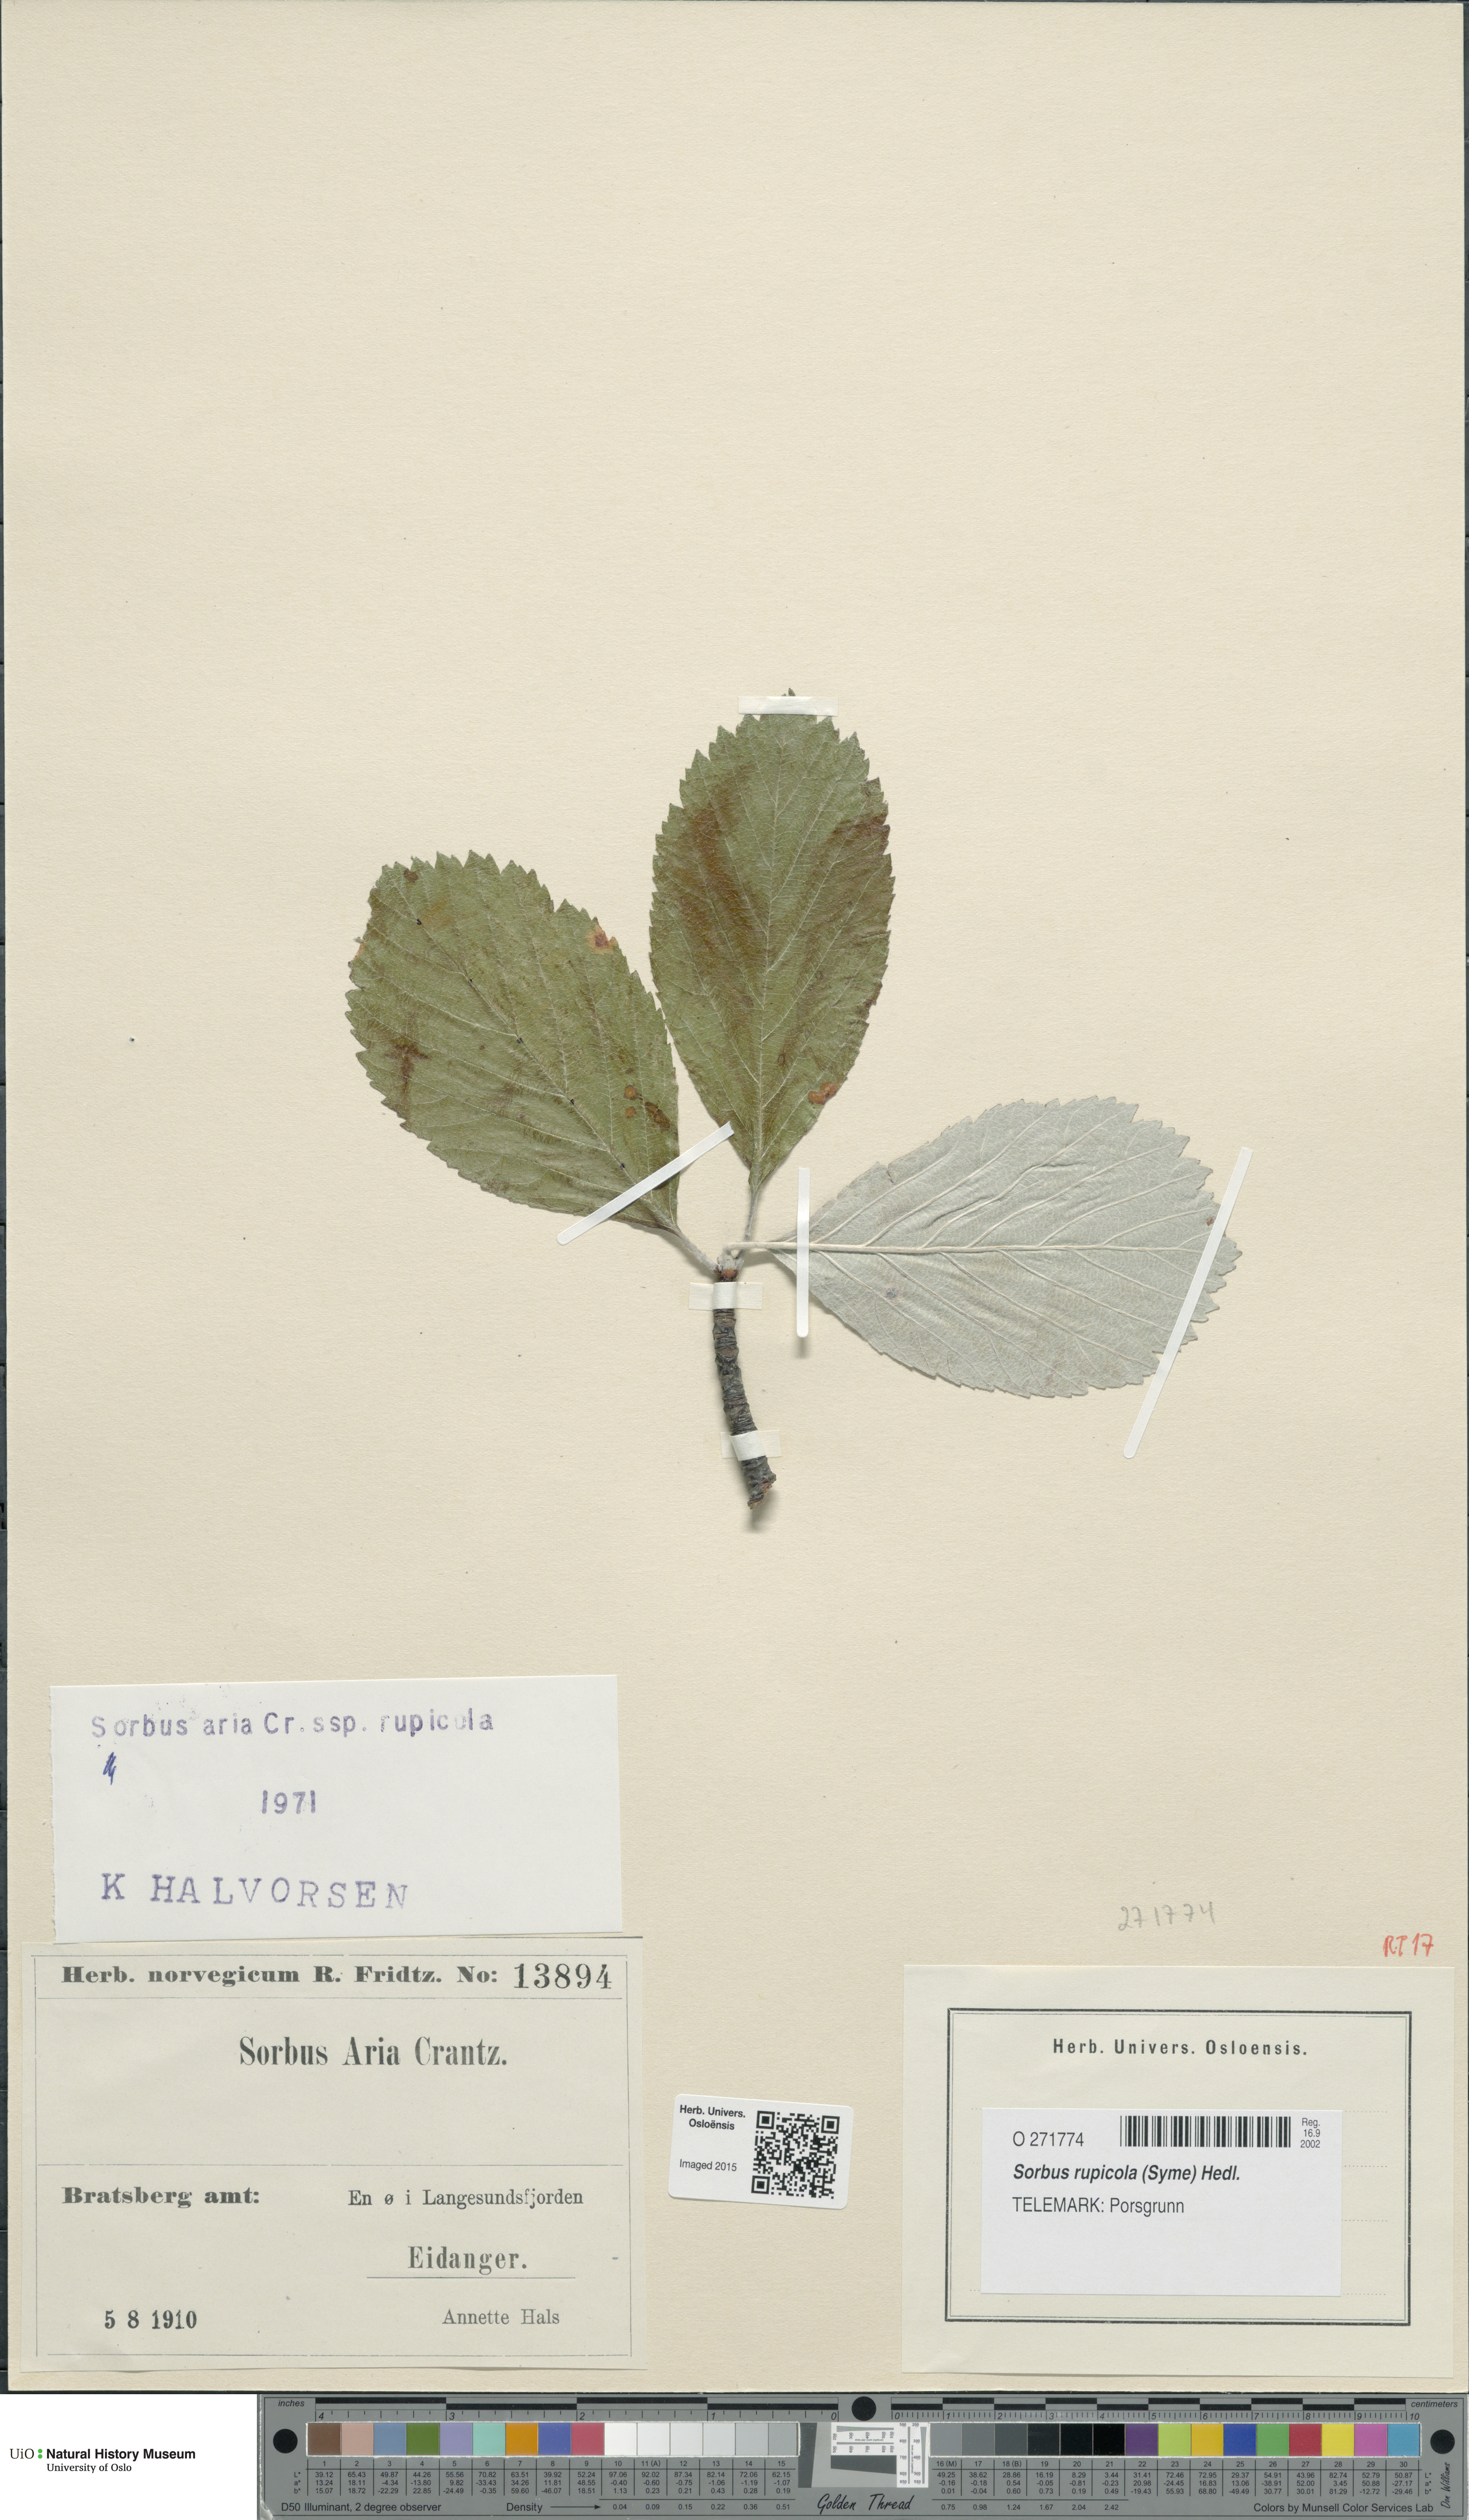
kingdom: Plantae
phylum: Tracheophyta
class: Magnoliopsida
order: Rosales
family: Rosaceae
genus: Aria
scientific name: Aria rupicola
